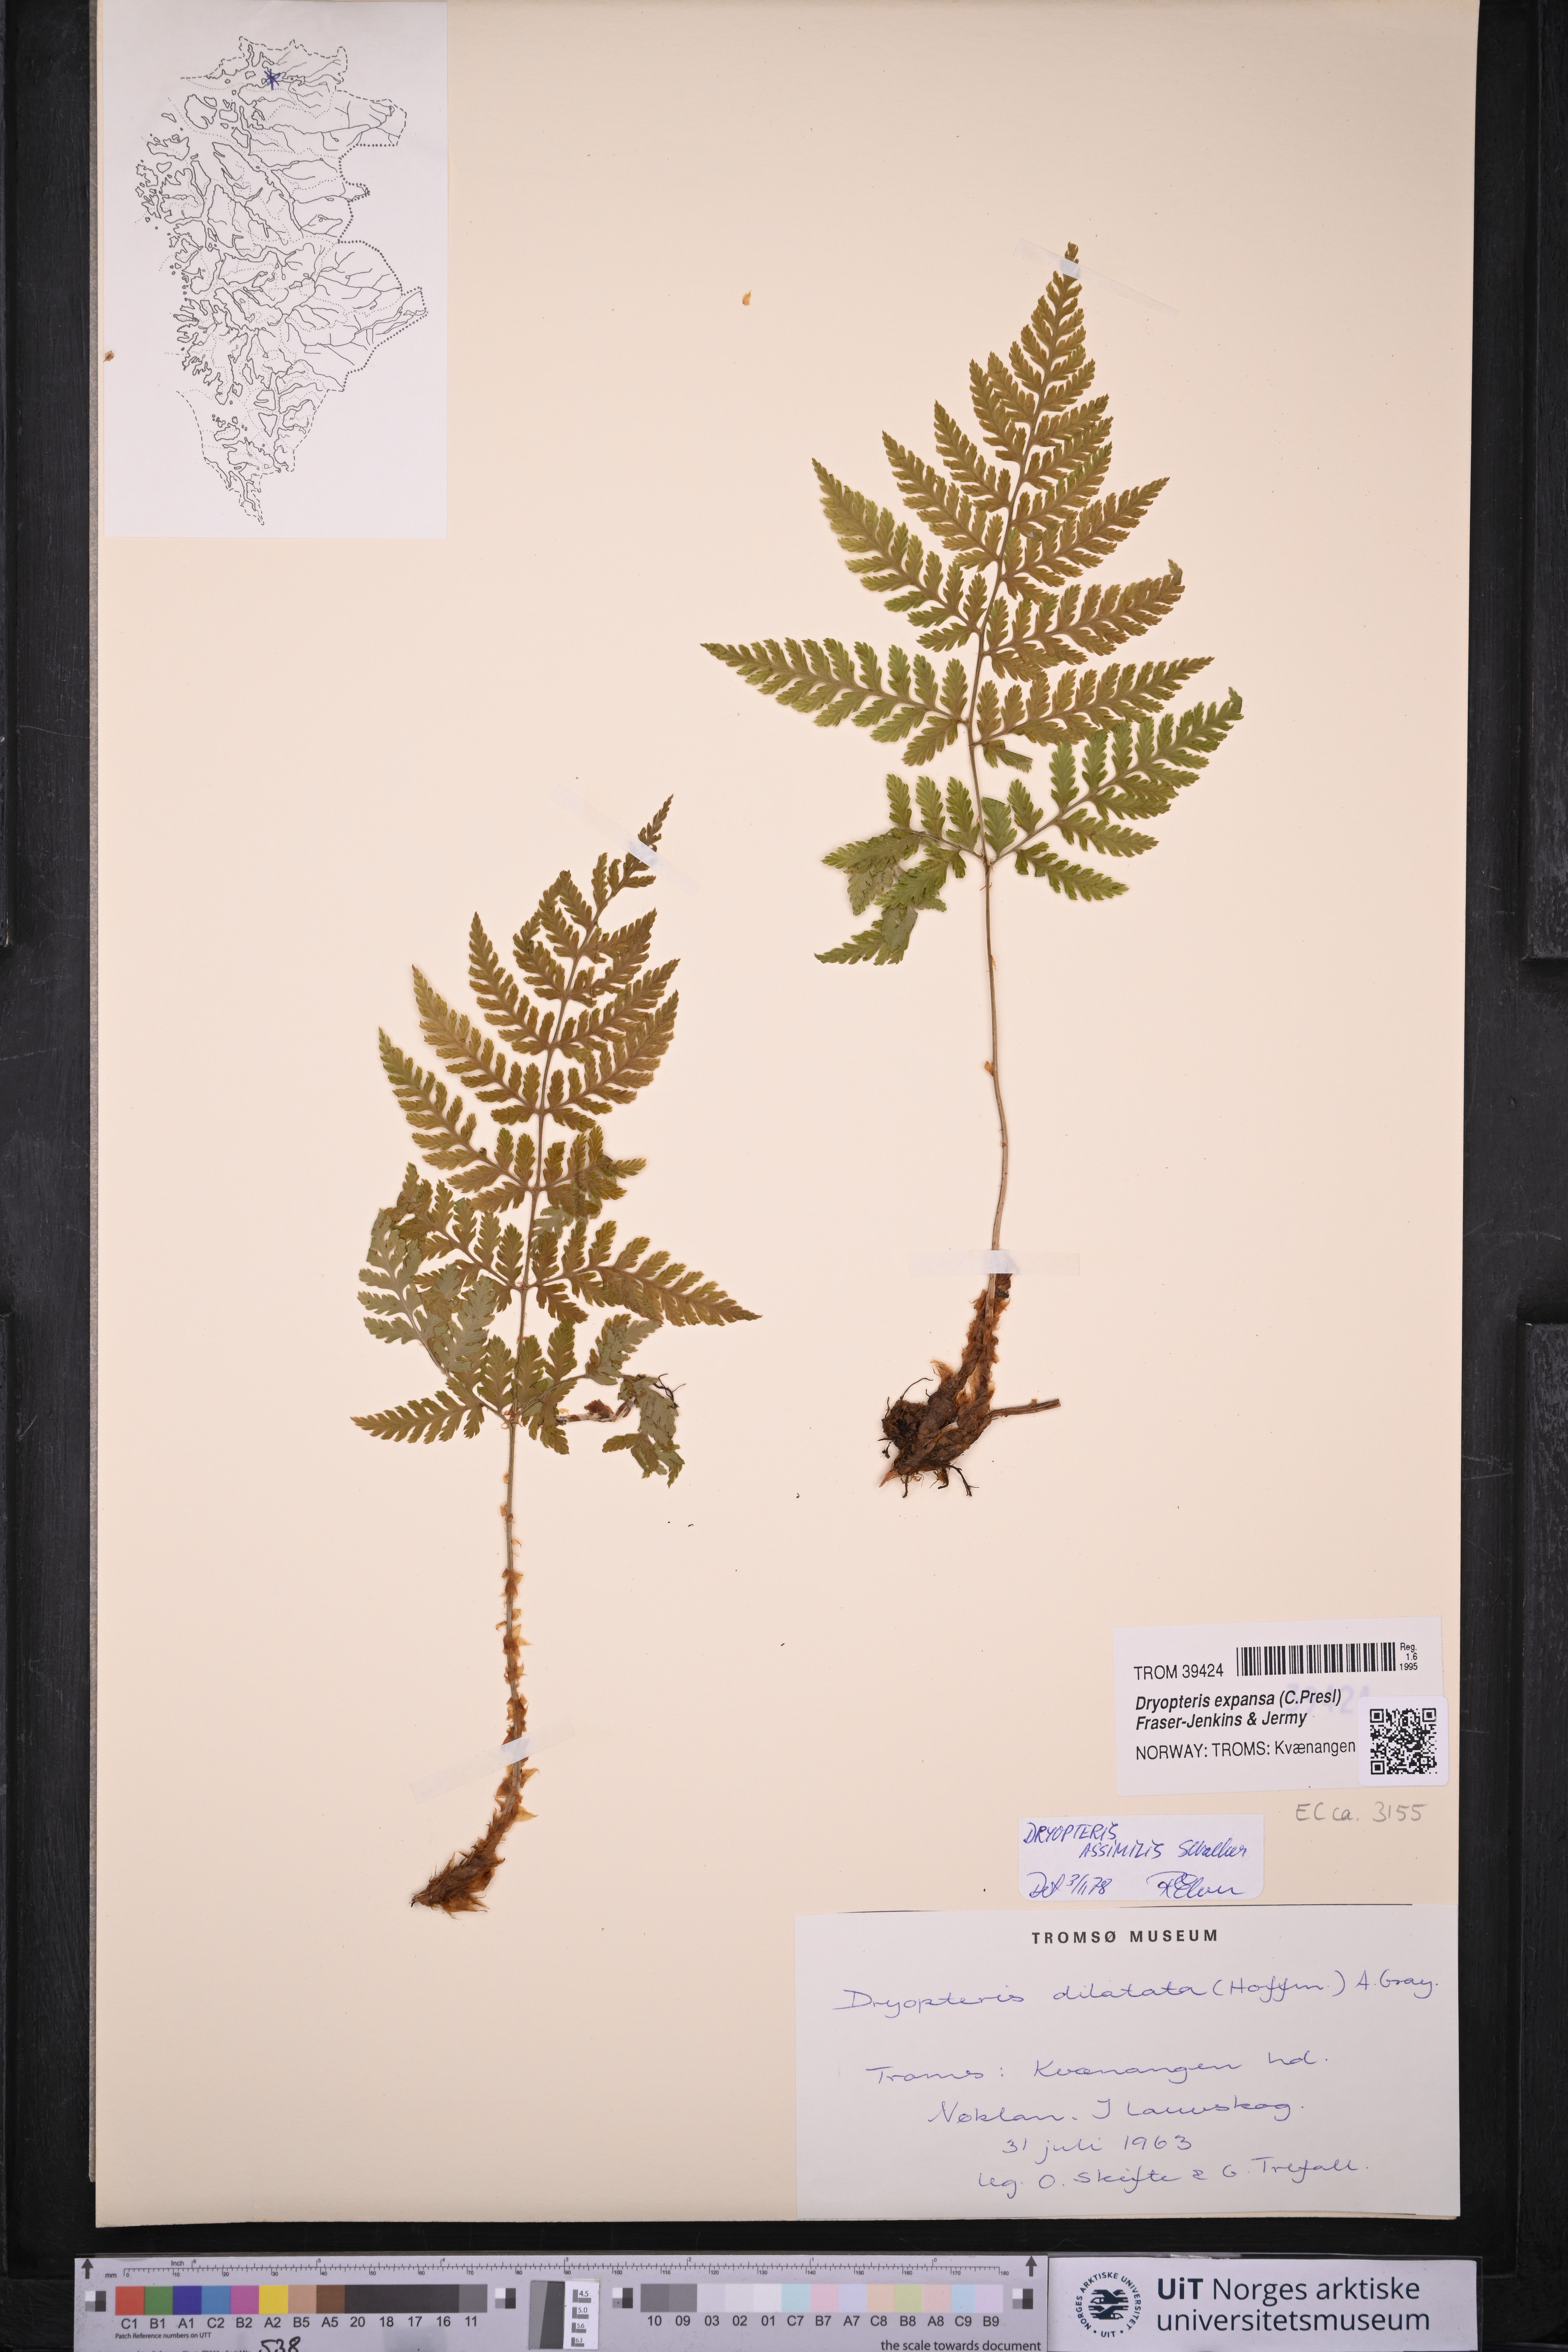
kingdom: Plantae
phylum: Tracheophyta
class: Polypodiopsida
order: Polypodiales
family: Dryopteridaceae
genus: Dryopteris
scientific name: Dryopteris expansa
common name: Northern buckler fern
